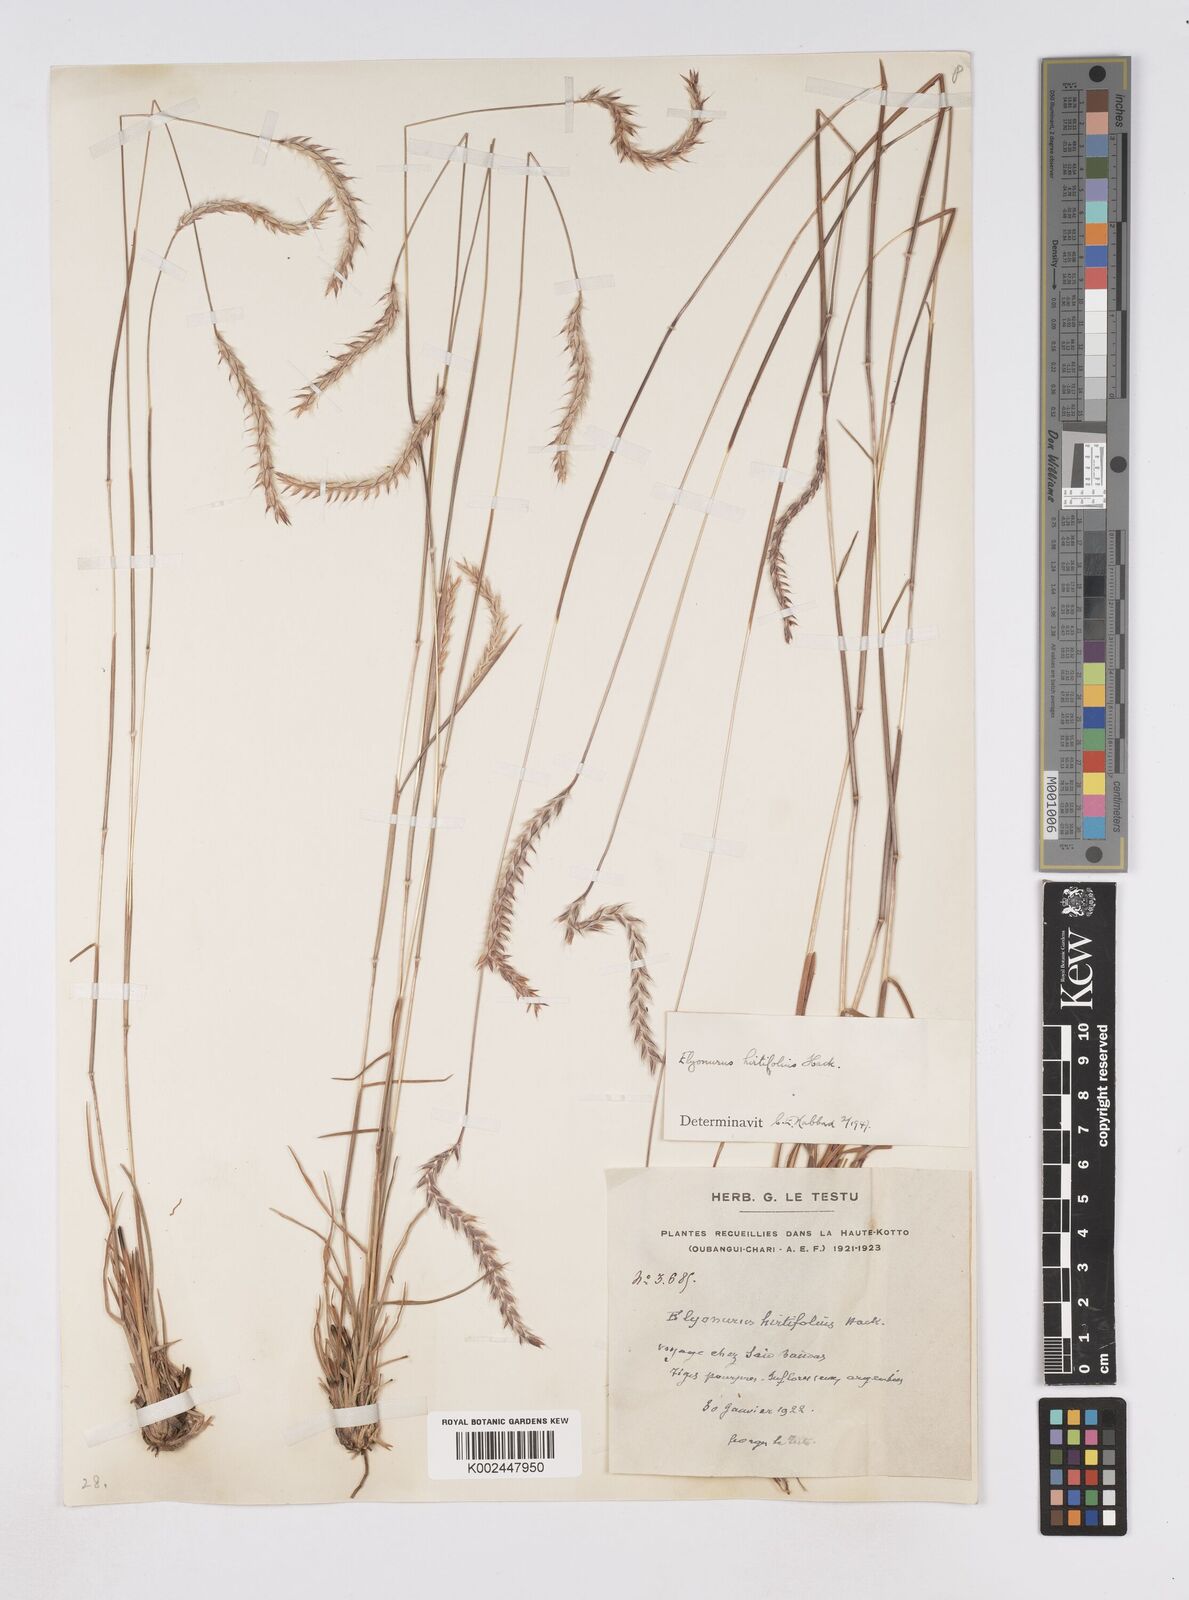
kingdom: Plantae
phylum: Tracheophyta
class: Liliopsida
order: Poales
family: Poaceae
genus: Elionurus
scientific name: Elionurus hirtifolius
